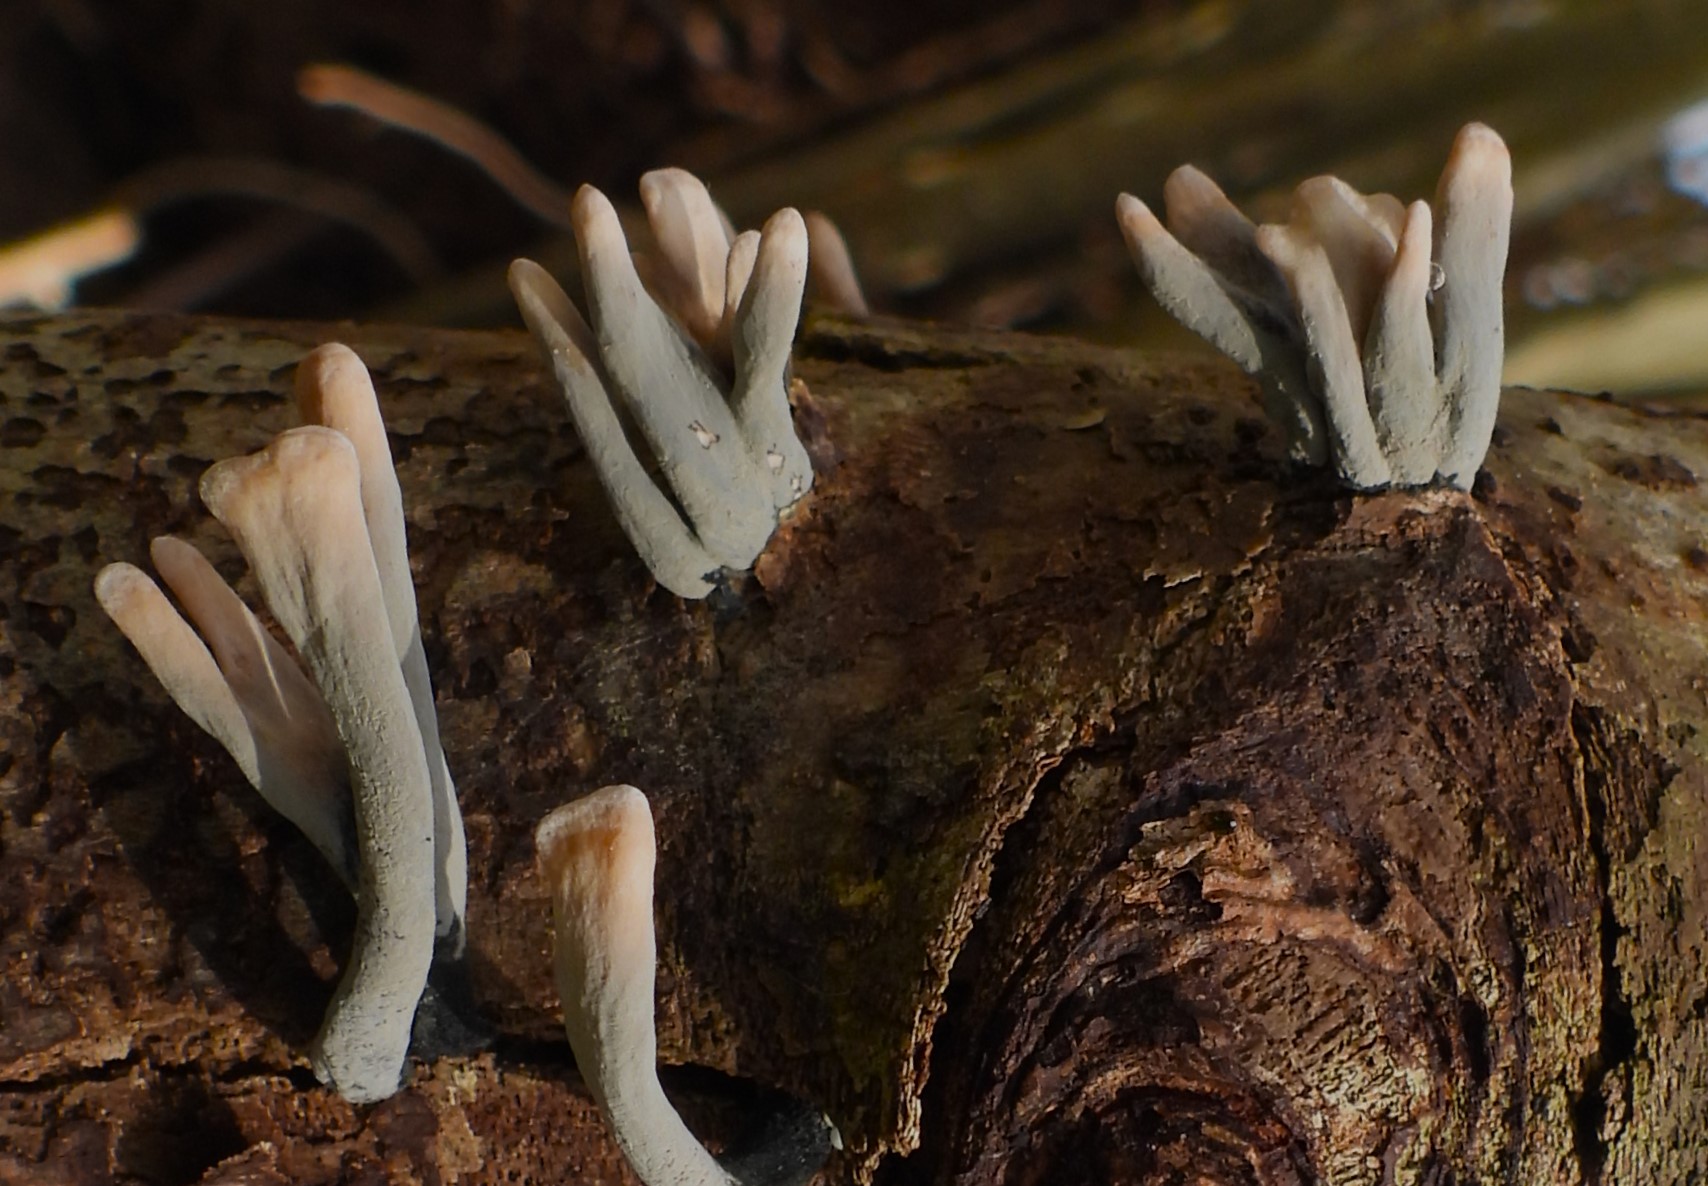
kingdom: Fungi
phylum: Ascomycota
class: Sordariomycetes
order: Xylariales
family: Xylariaceae
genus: Xylaria
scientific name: Xylaria hypoxylon
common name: grenet stødsvamp
